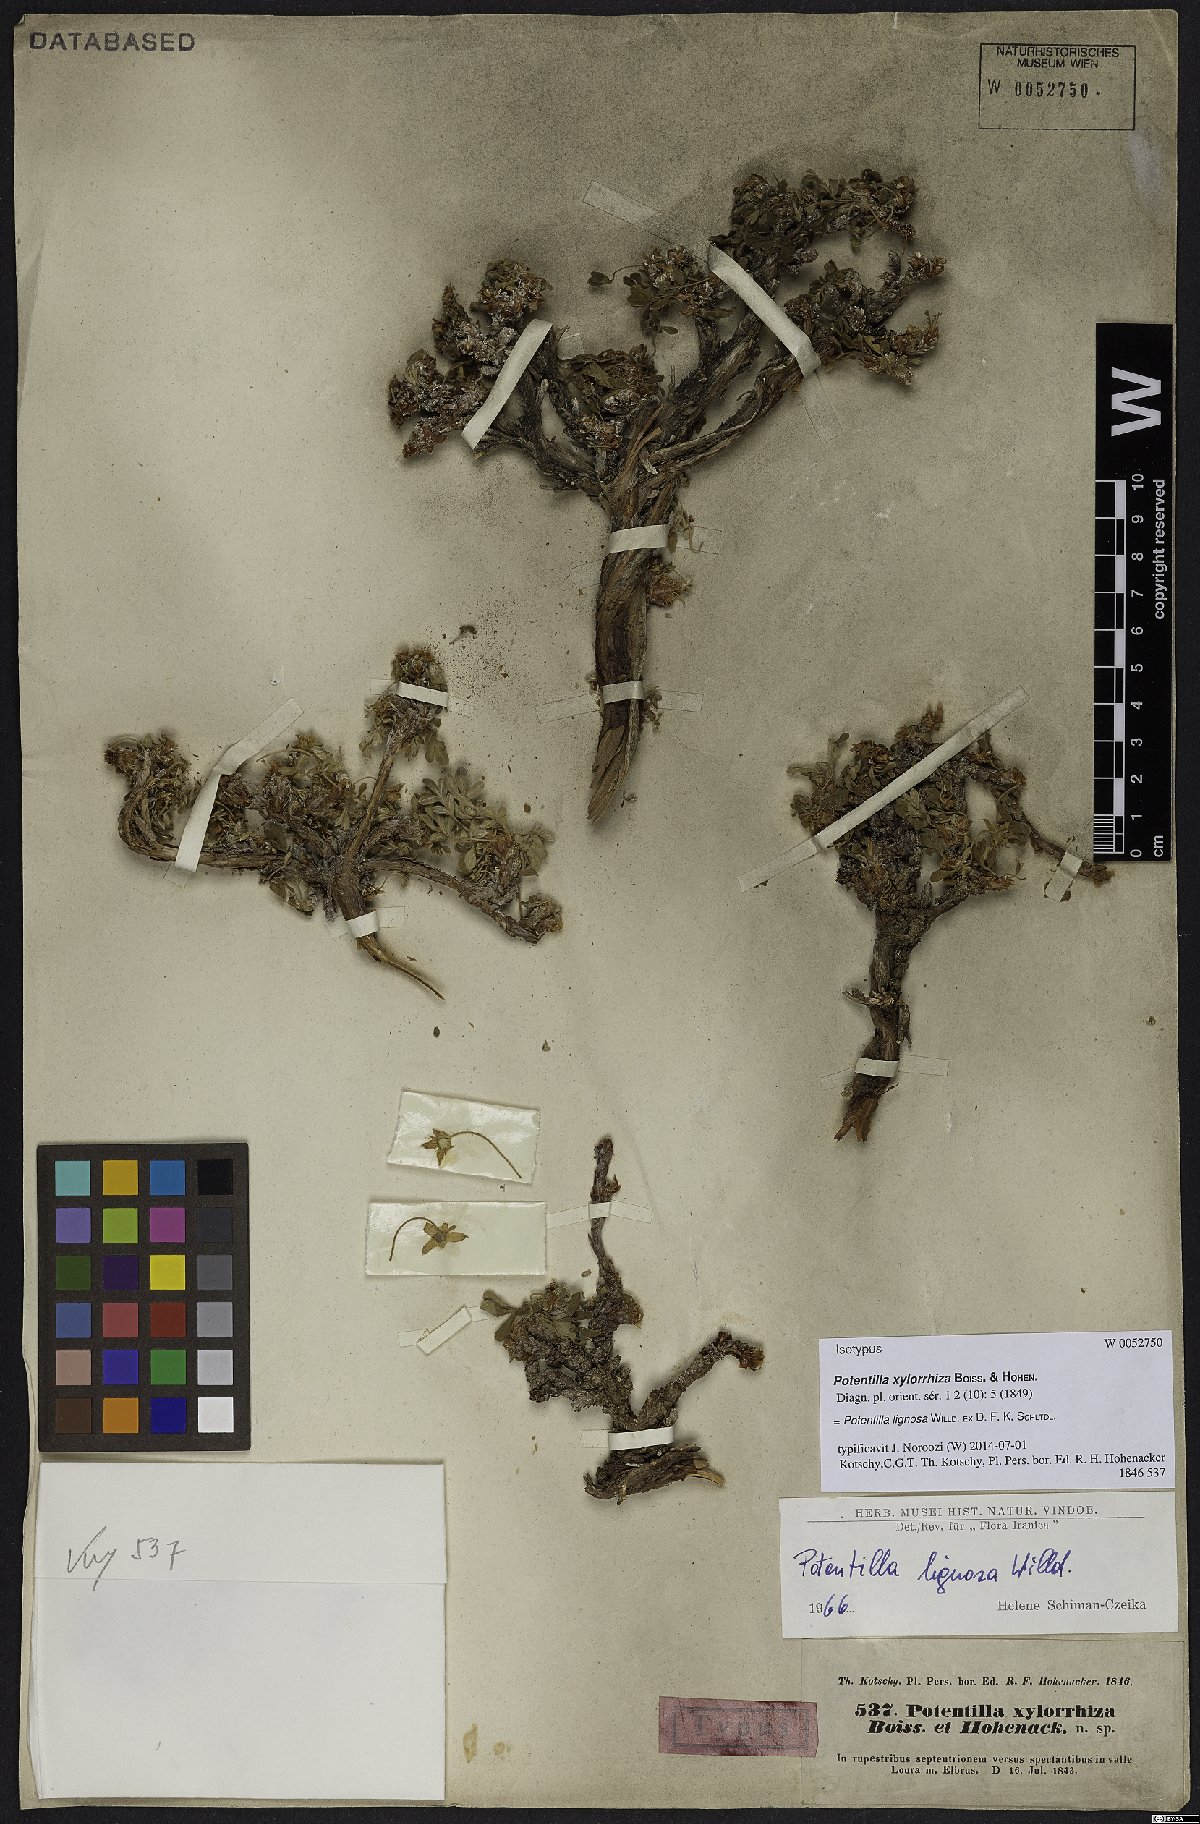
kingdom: Plantae
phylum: Tracheophyta
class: Magnoliopsida
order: Rosales
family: Rosaceae
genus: Argentina
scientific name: Argentina lignosa
